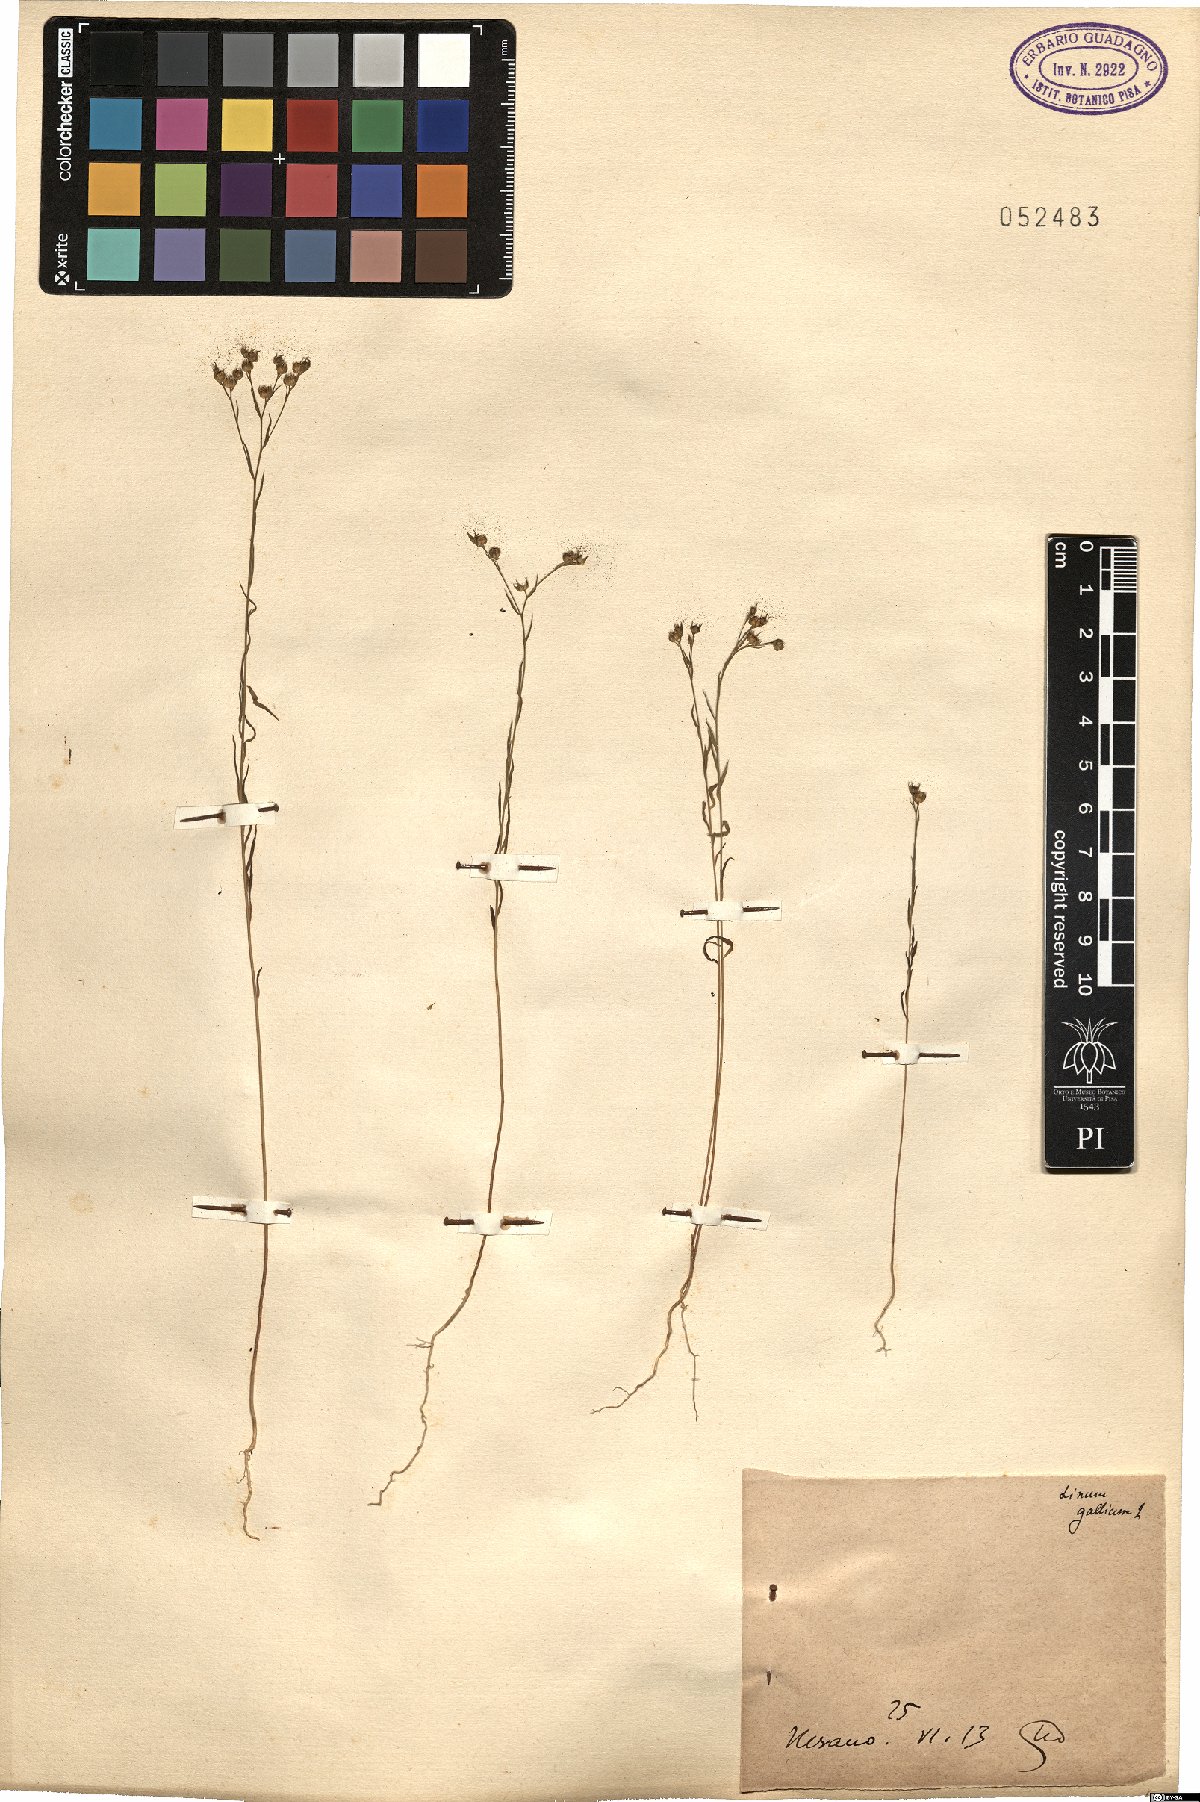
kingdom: Plantae
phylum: Tracheophyta
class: Magnoliopsida
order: Malpighiales
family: Linaceae
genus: Linum
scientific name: Linum trigynum
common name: French flax
